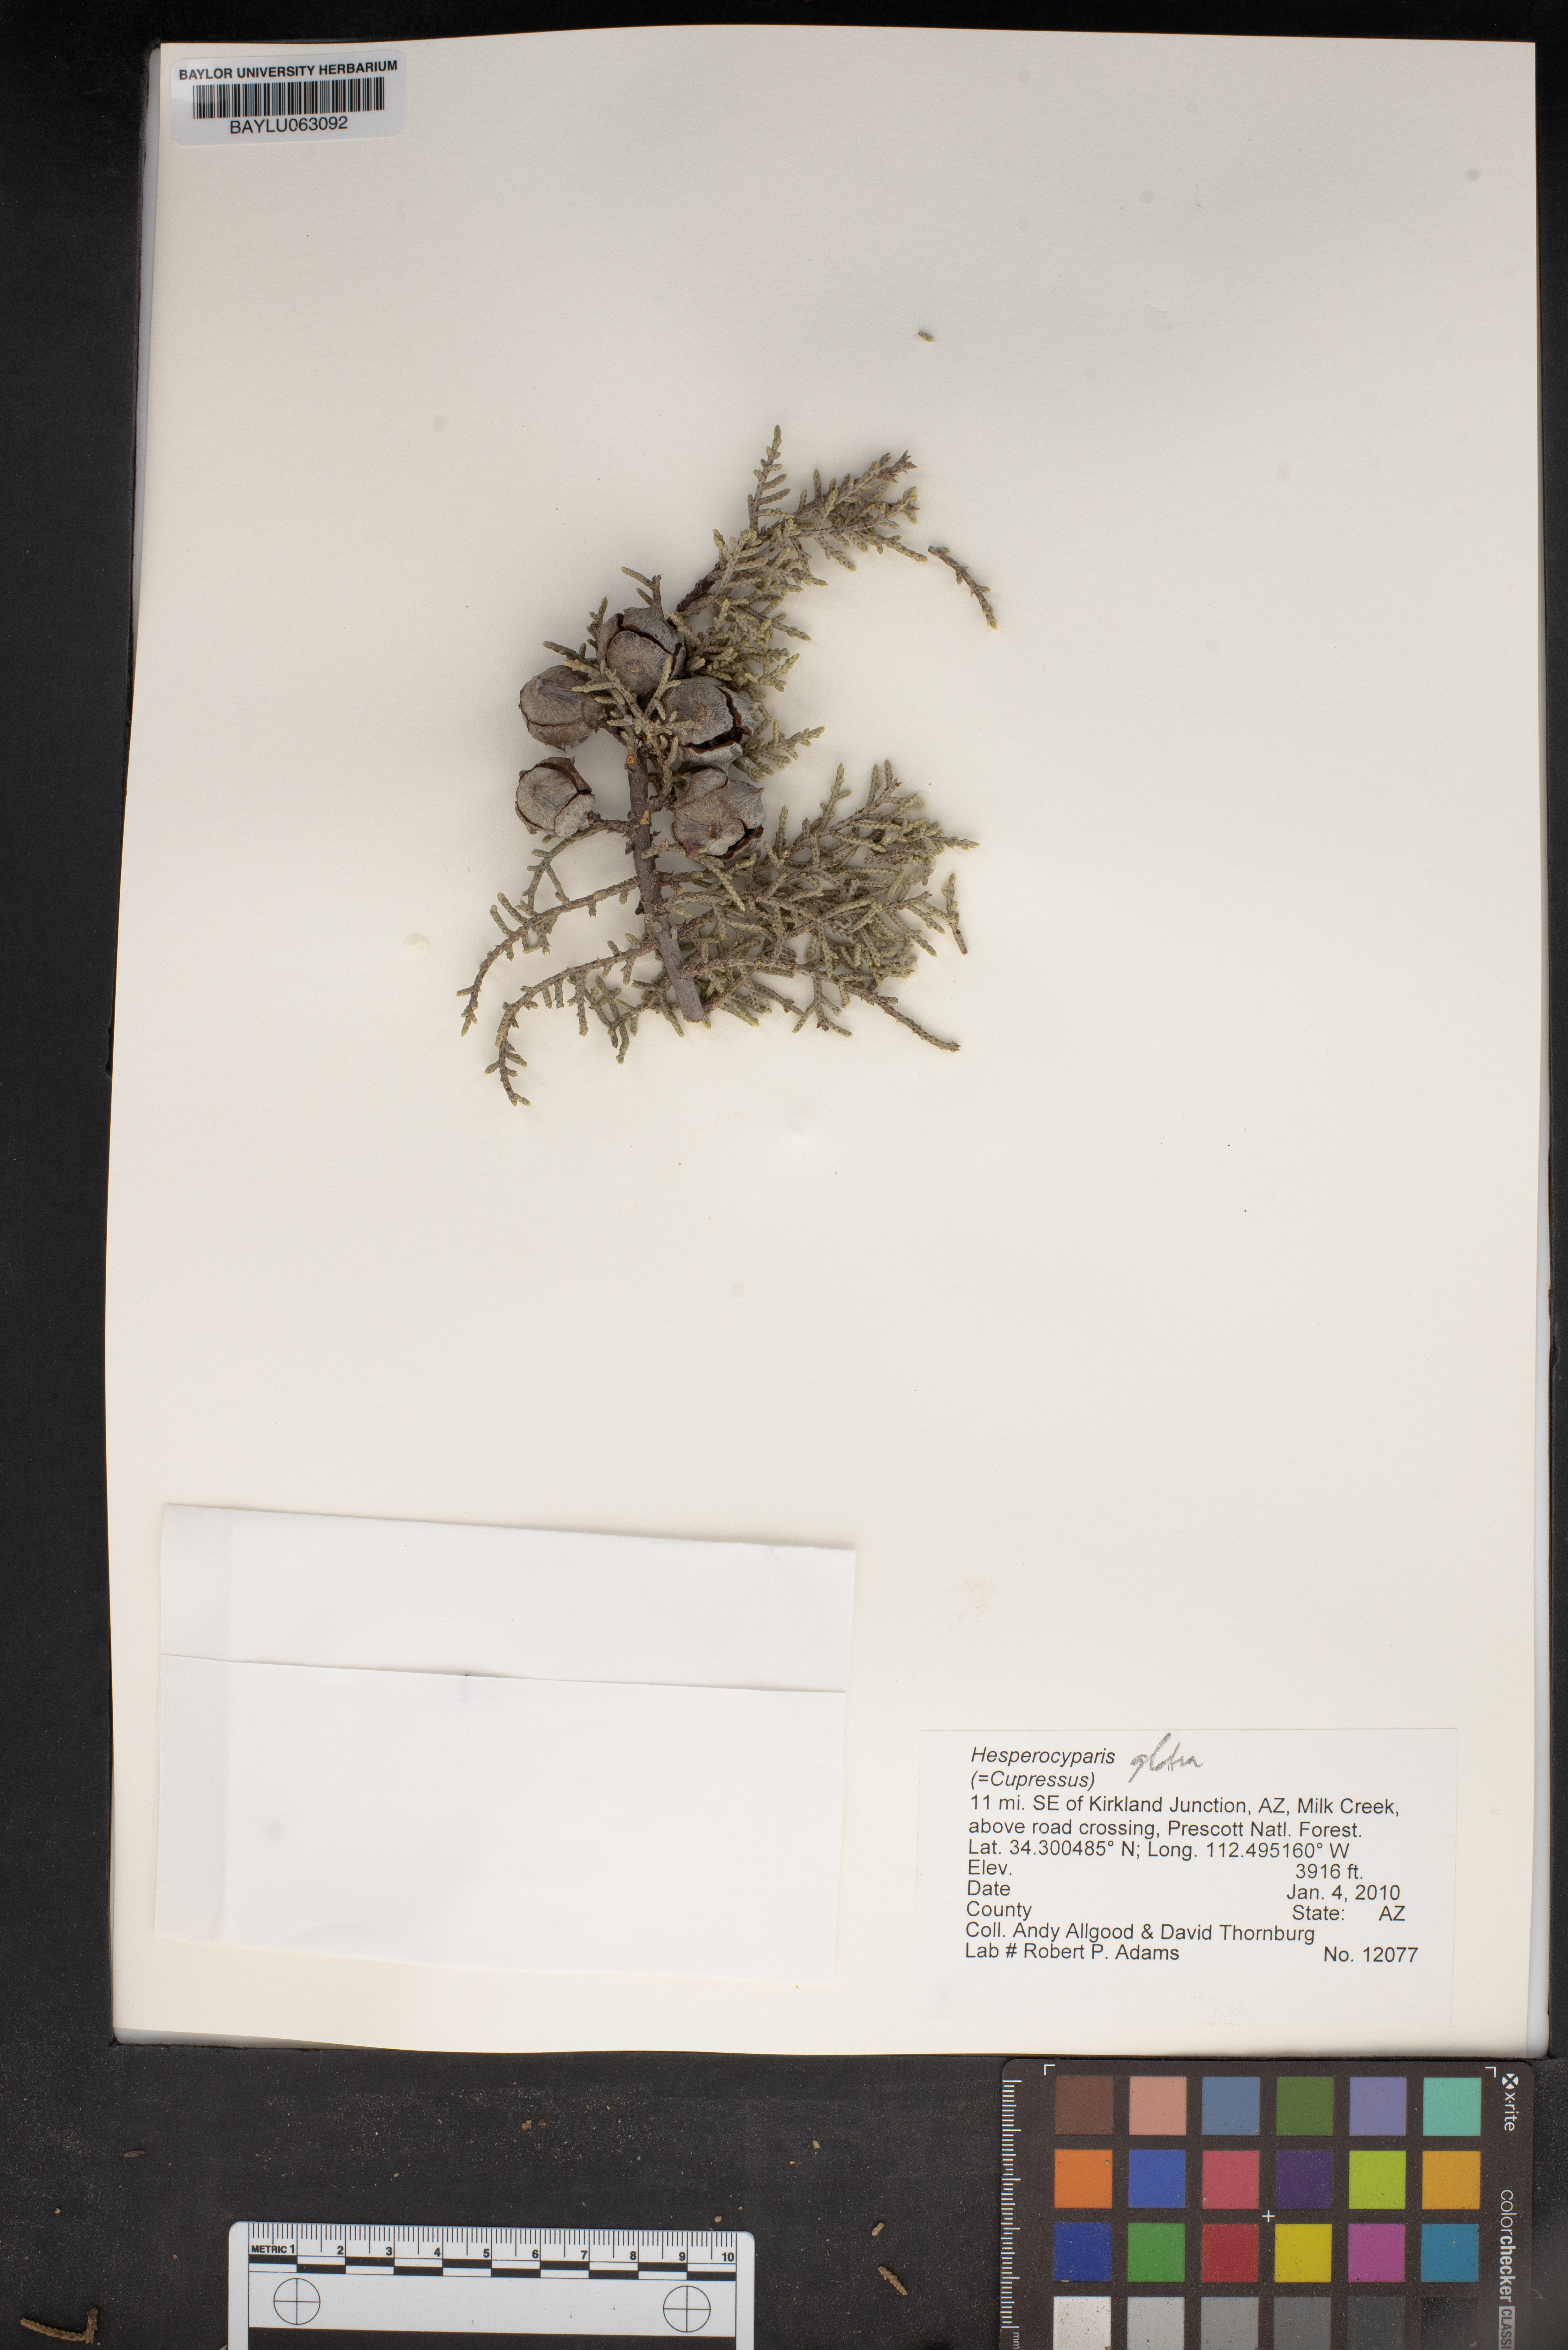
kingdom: Plantae
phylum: Tracheophyta
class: Pinopsida
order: Pinales
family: Cupressaceae
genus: Cupressus
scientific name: Cupressus arizonica
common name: Arizona cypress
